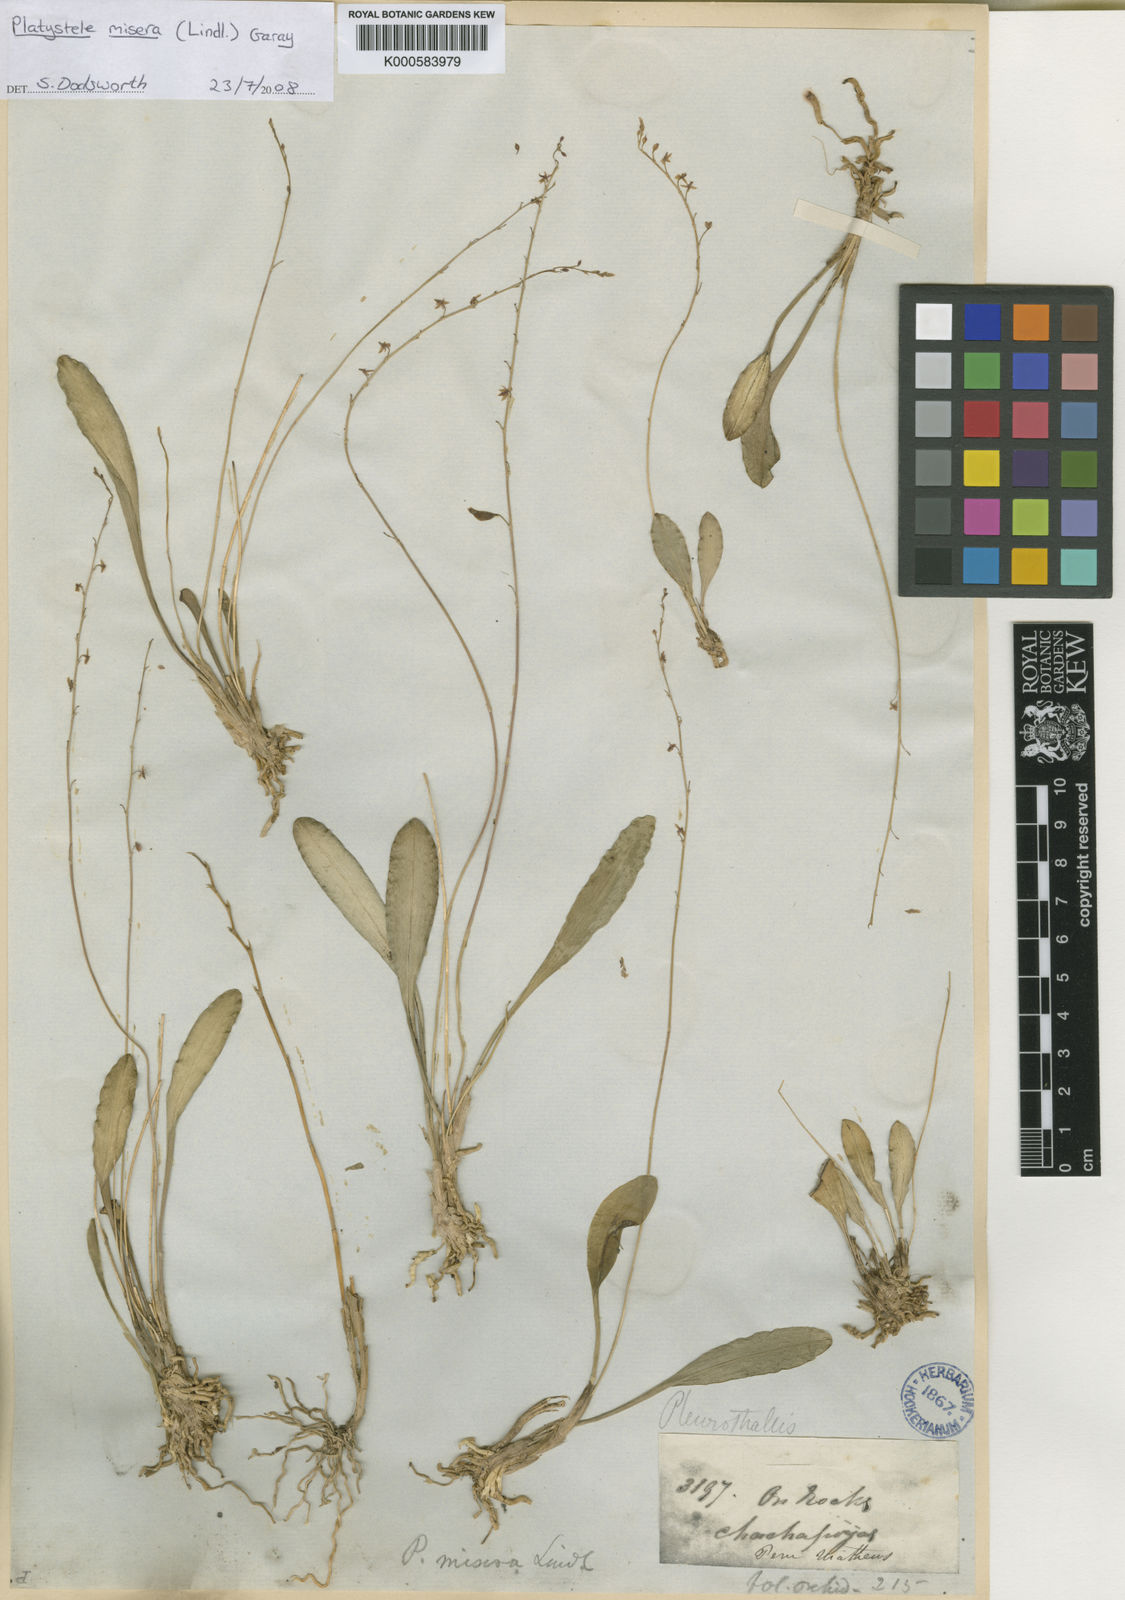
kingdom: Plantae
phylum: Tracheophyta
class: Liliopsida
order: Asparagales
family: Orchidaceae
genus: Platystele
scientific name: Platystele misera
